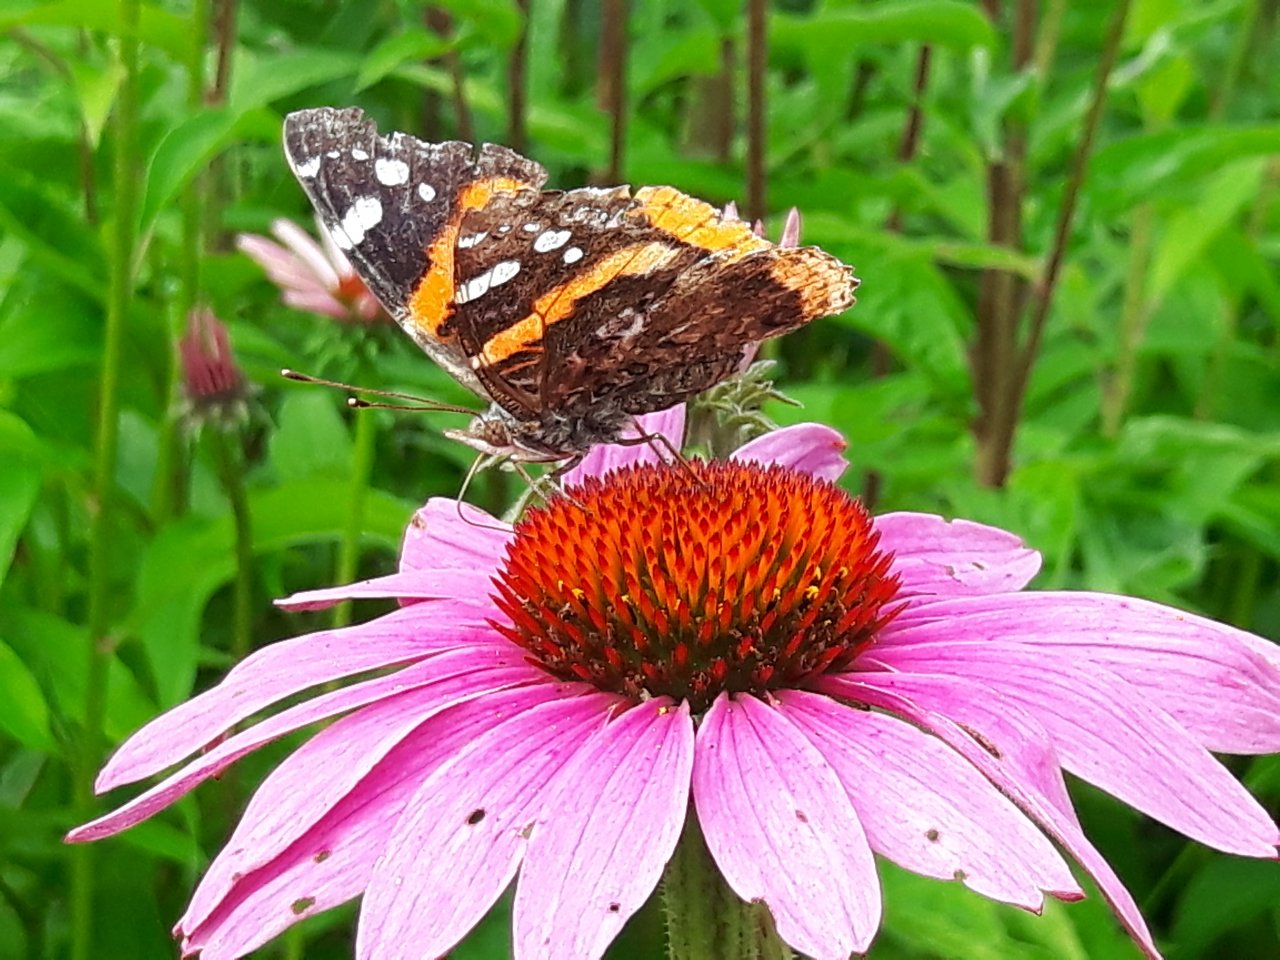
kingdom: Animalia
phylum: Arthropoda
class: Insecta
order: Lepidoptera
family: Nymphalidae
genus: Vanessa
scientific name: Vanessa atalanta
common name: Red Admiral
